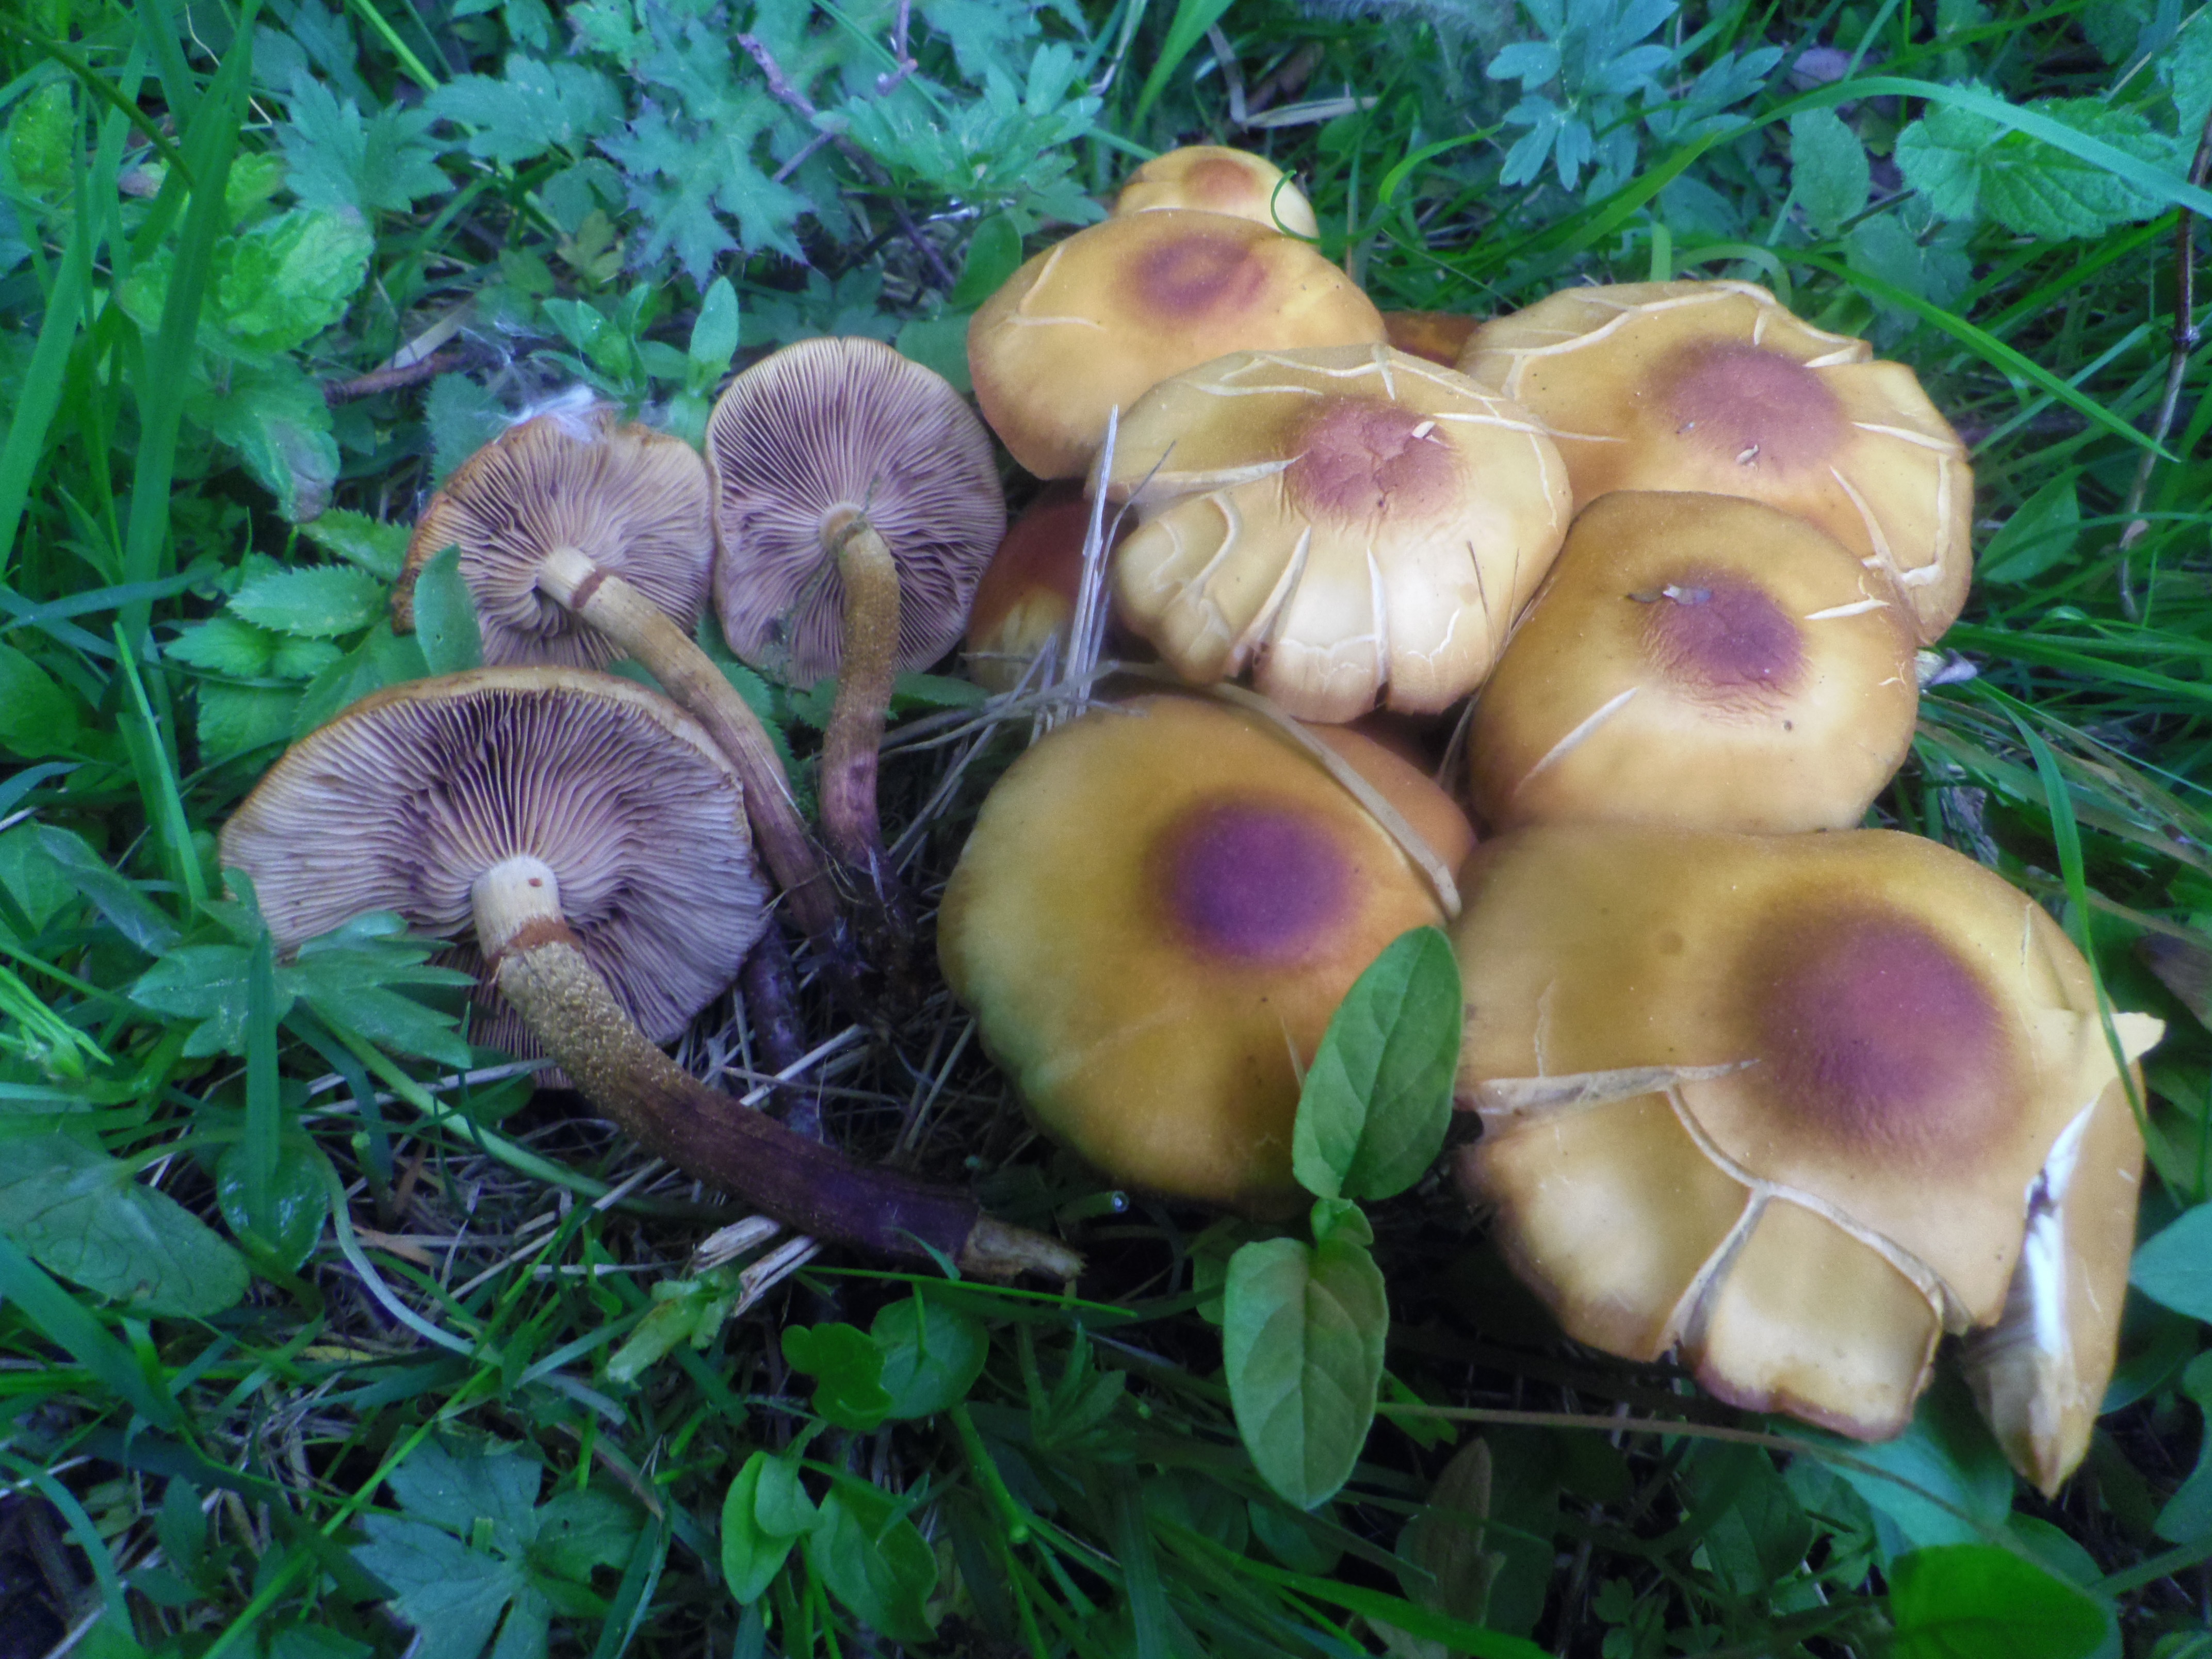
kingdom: Fungi
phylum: Basidiomycota
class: Agaricomycetes
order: Agaricales
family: Strophariaceae
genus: Kuehneromyces
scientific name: Kuehneromyces mutabilis
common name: Sheathed woodtuft
